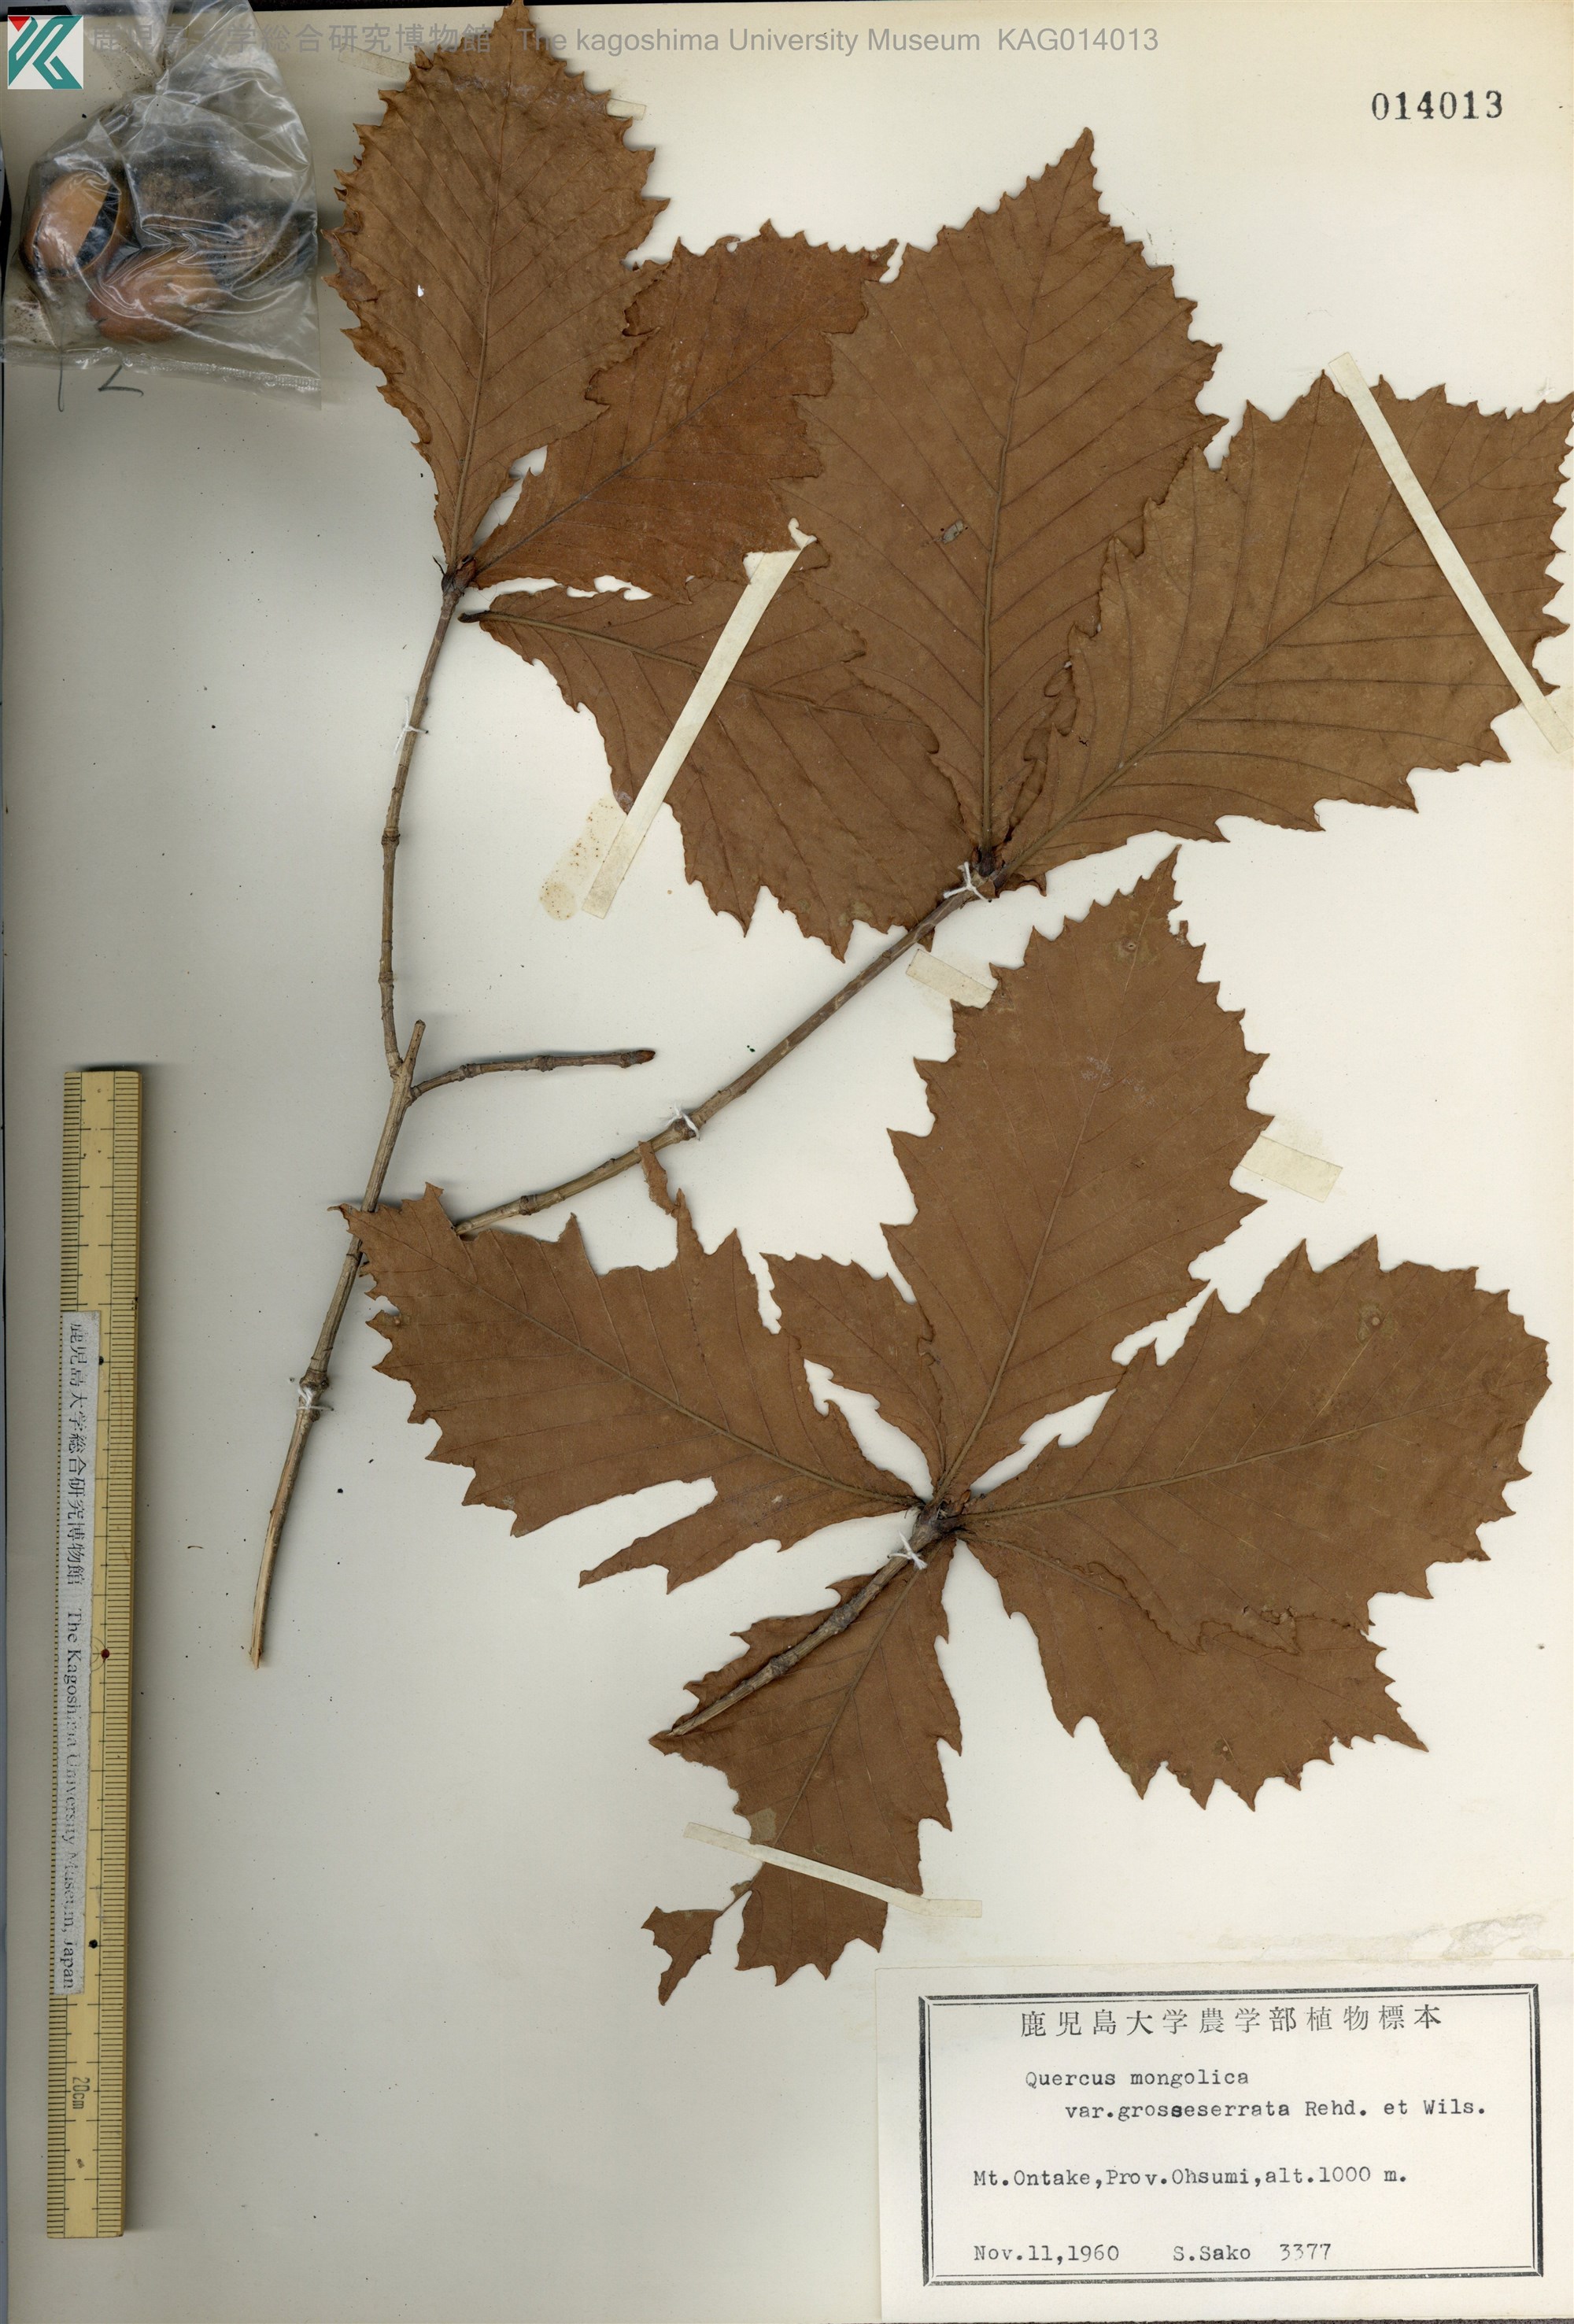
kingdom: Plantae
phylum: Tracheophyta
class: Magnoliopsida
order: Fagales
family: Fagaceae
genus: Quercus
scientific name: Quercus crispula
